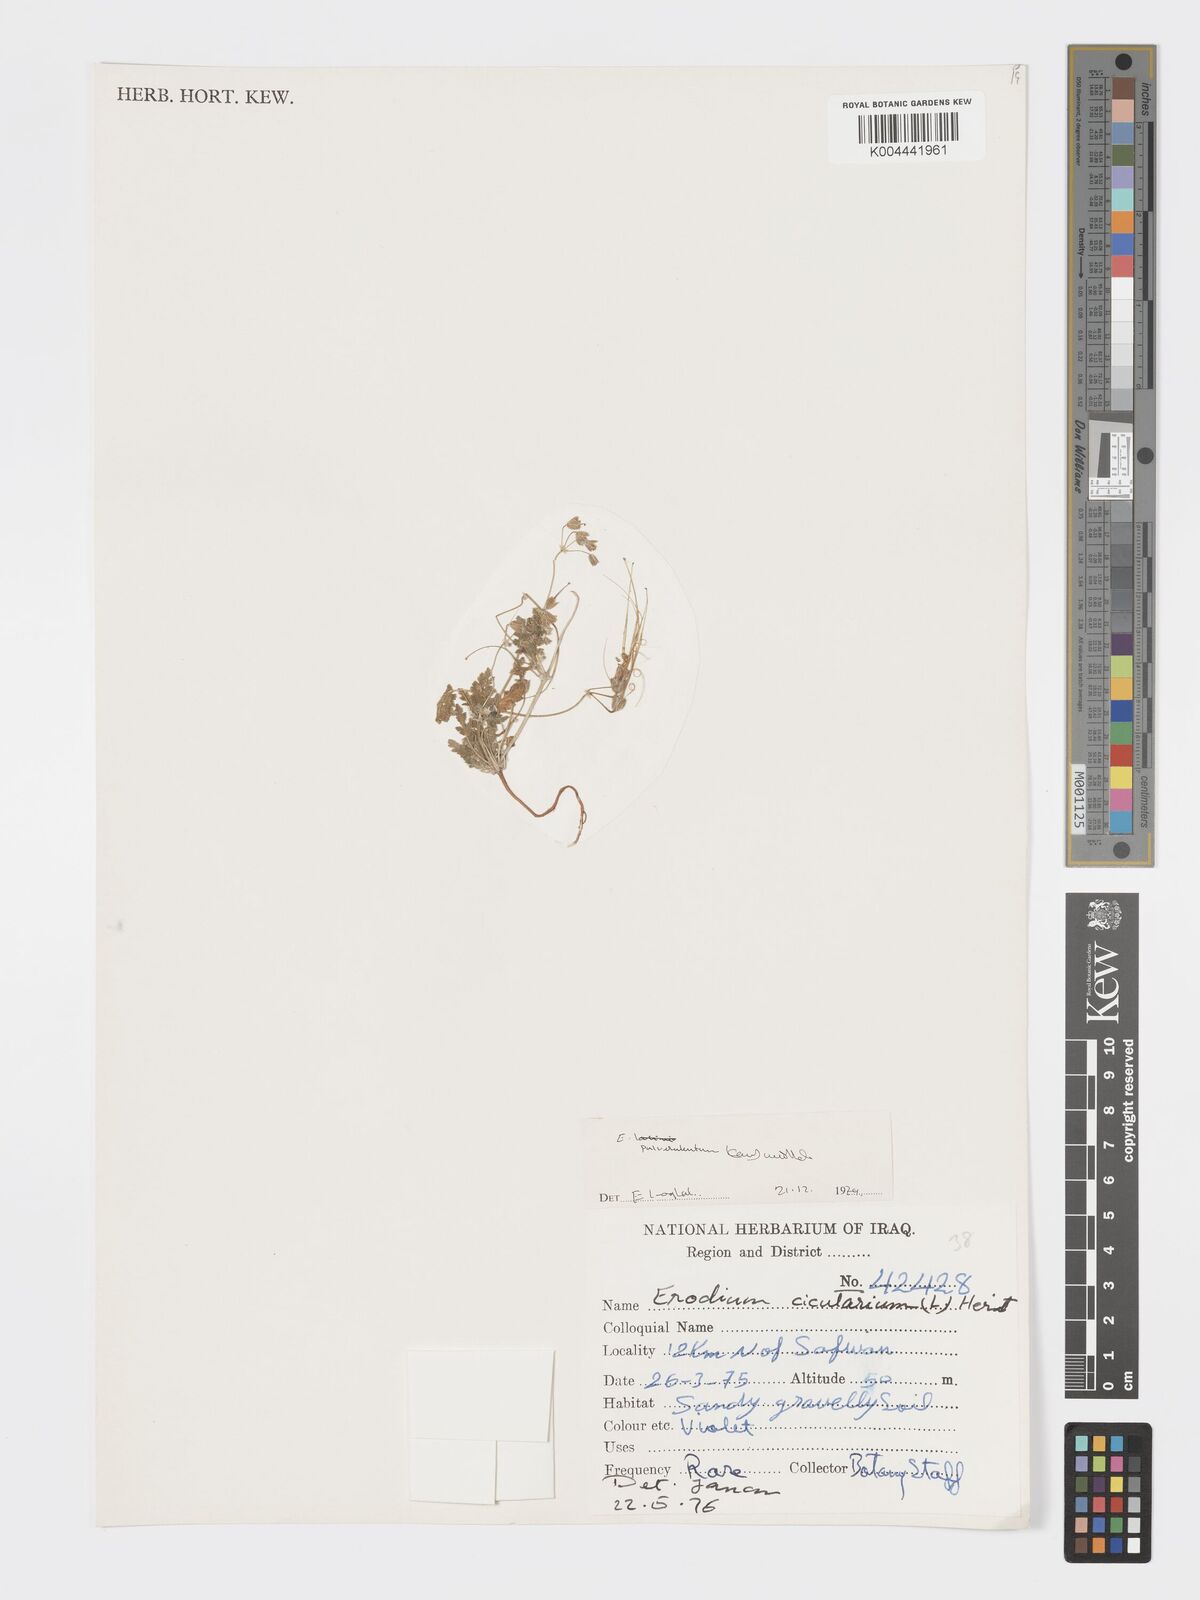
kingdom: Plantae
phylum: Tracheophyta
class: Magnoliopsida
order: Geraniales
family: Geraniaceae
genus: Erodium
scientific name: Erodium laciniatum
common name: Cutleaf stork's bill
